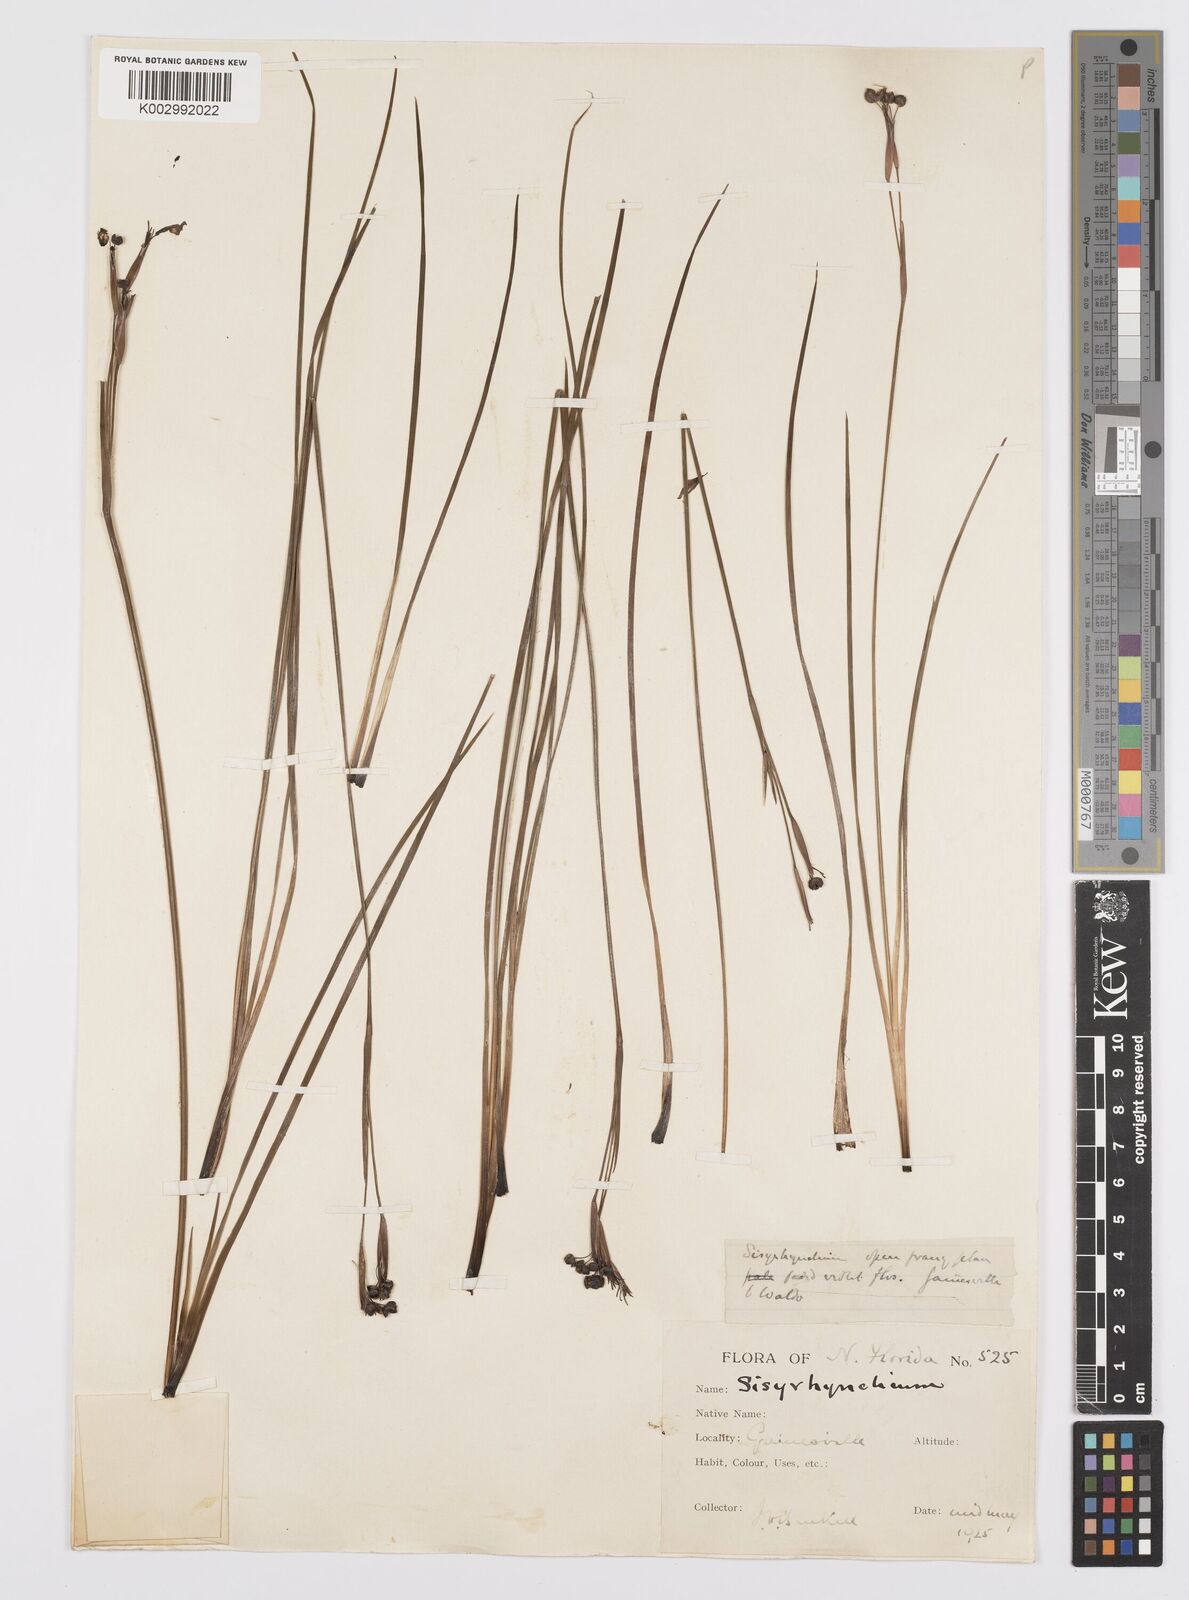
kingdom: Plantae
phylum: Tracheophyta
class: Liliopsida
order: Asparagales
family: Iridaceae
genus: Sisyrinchium
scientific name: Sisyrinchium
